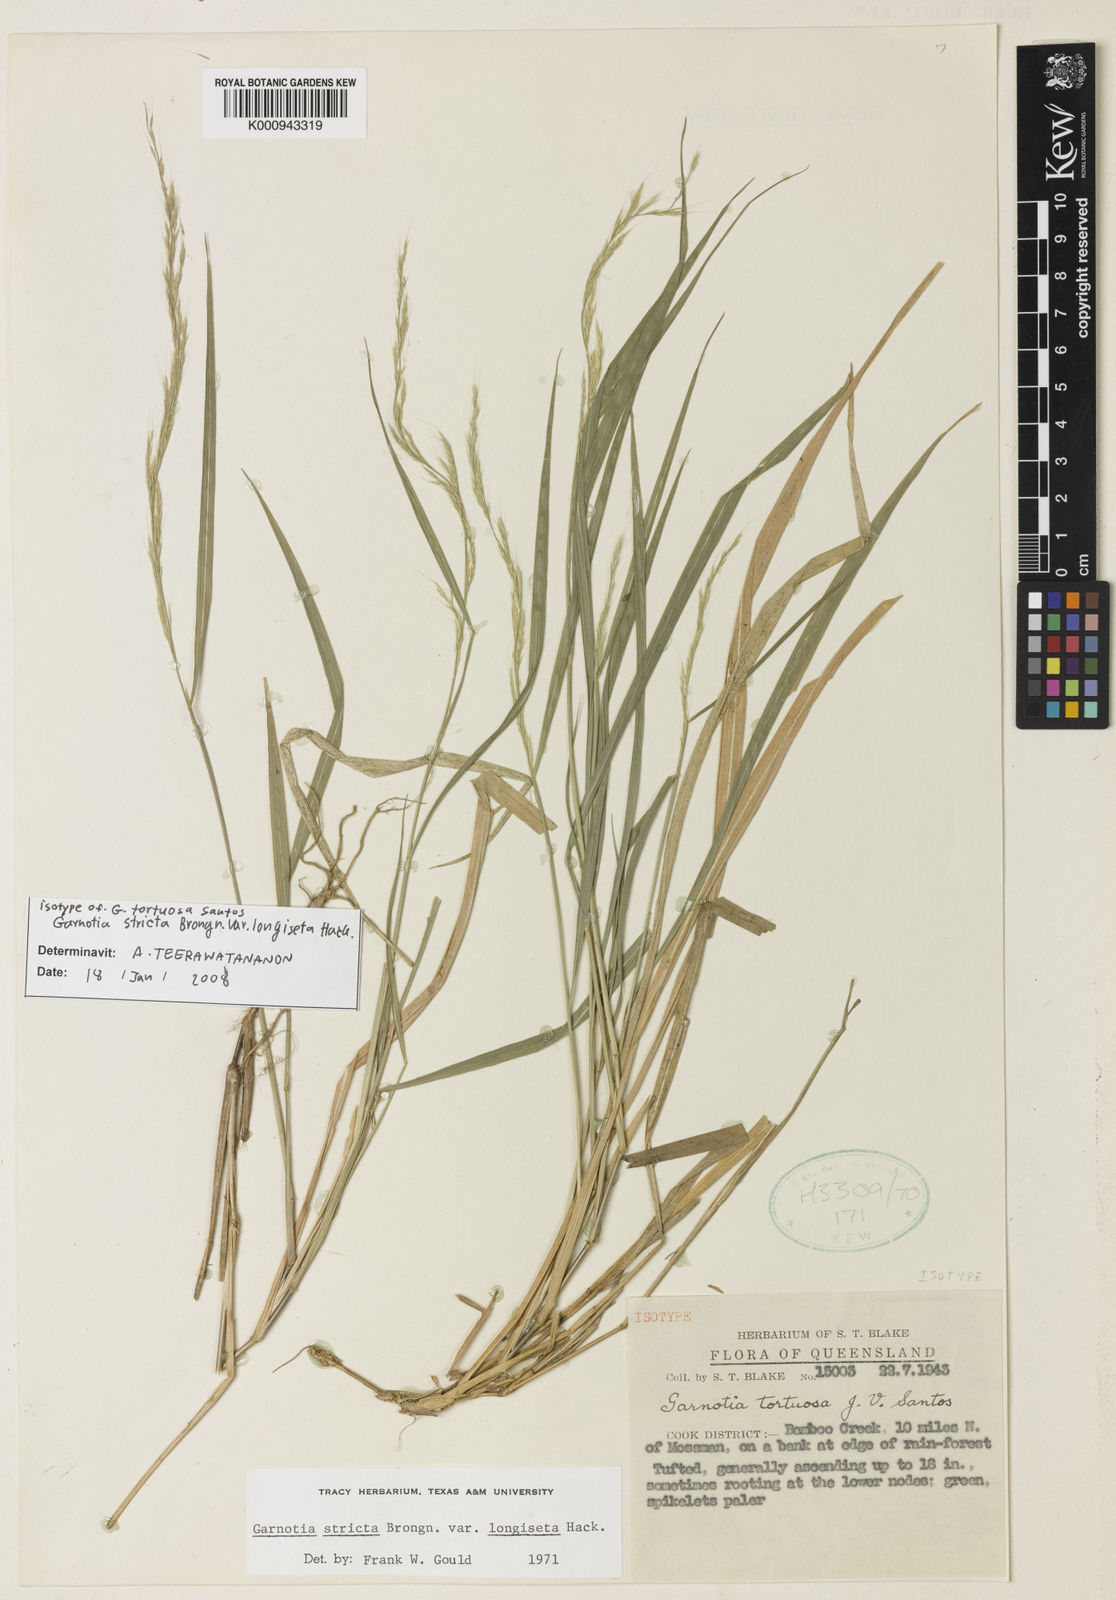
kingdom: Plantae
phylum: Tracheophyta
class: Liliopsida
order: Poales
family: Poaceae
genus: Garnotia
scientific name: Garnotia stricta
